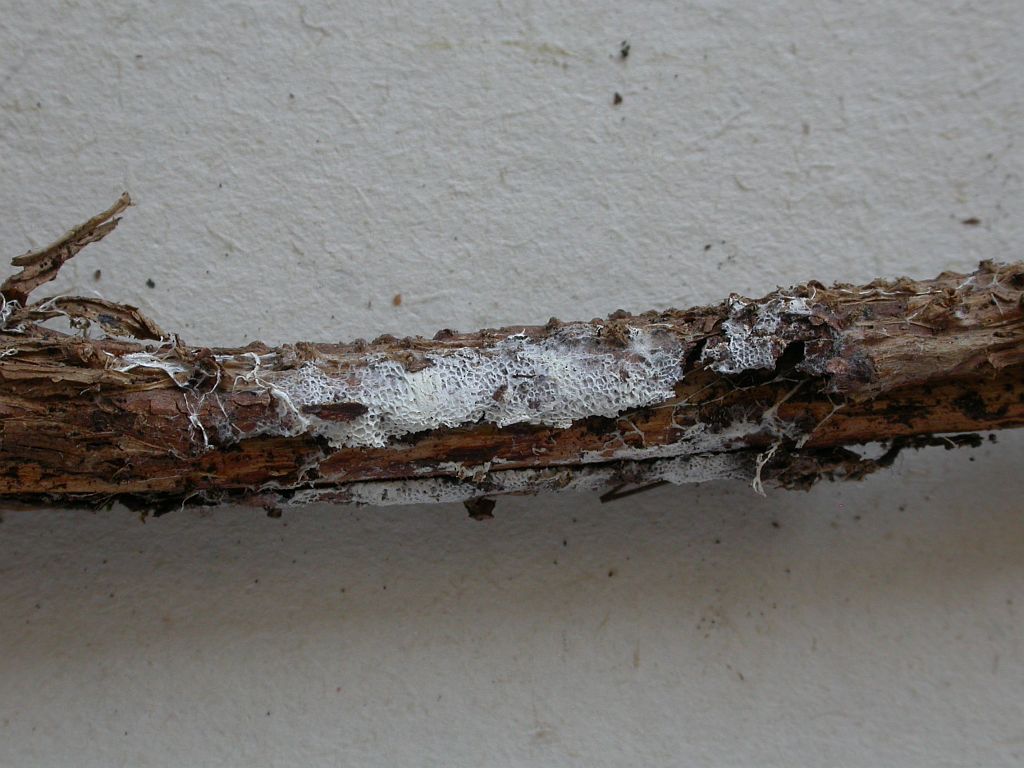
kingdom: Fungi
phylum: Basidiomycota
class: Agaricomycetes
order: Trechisporales
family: Sistotremataceae
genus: Trechispora
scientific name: Trechispora hymenocystis
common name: poret vathinde
